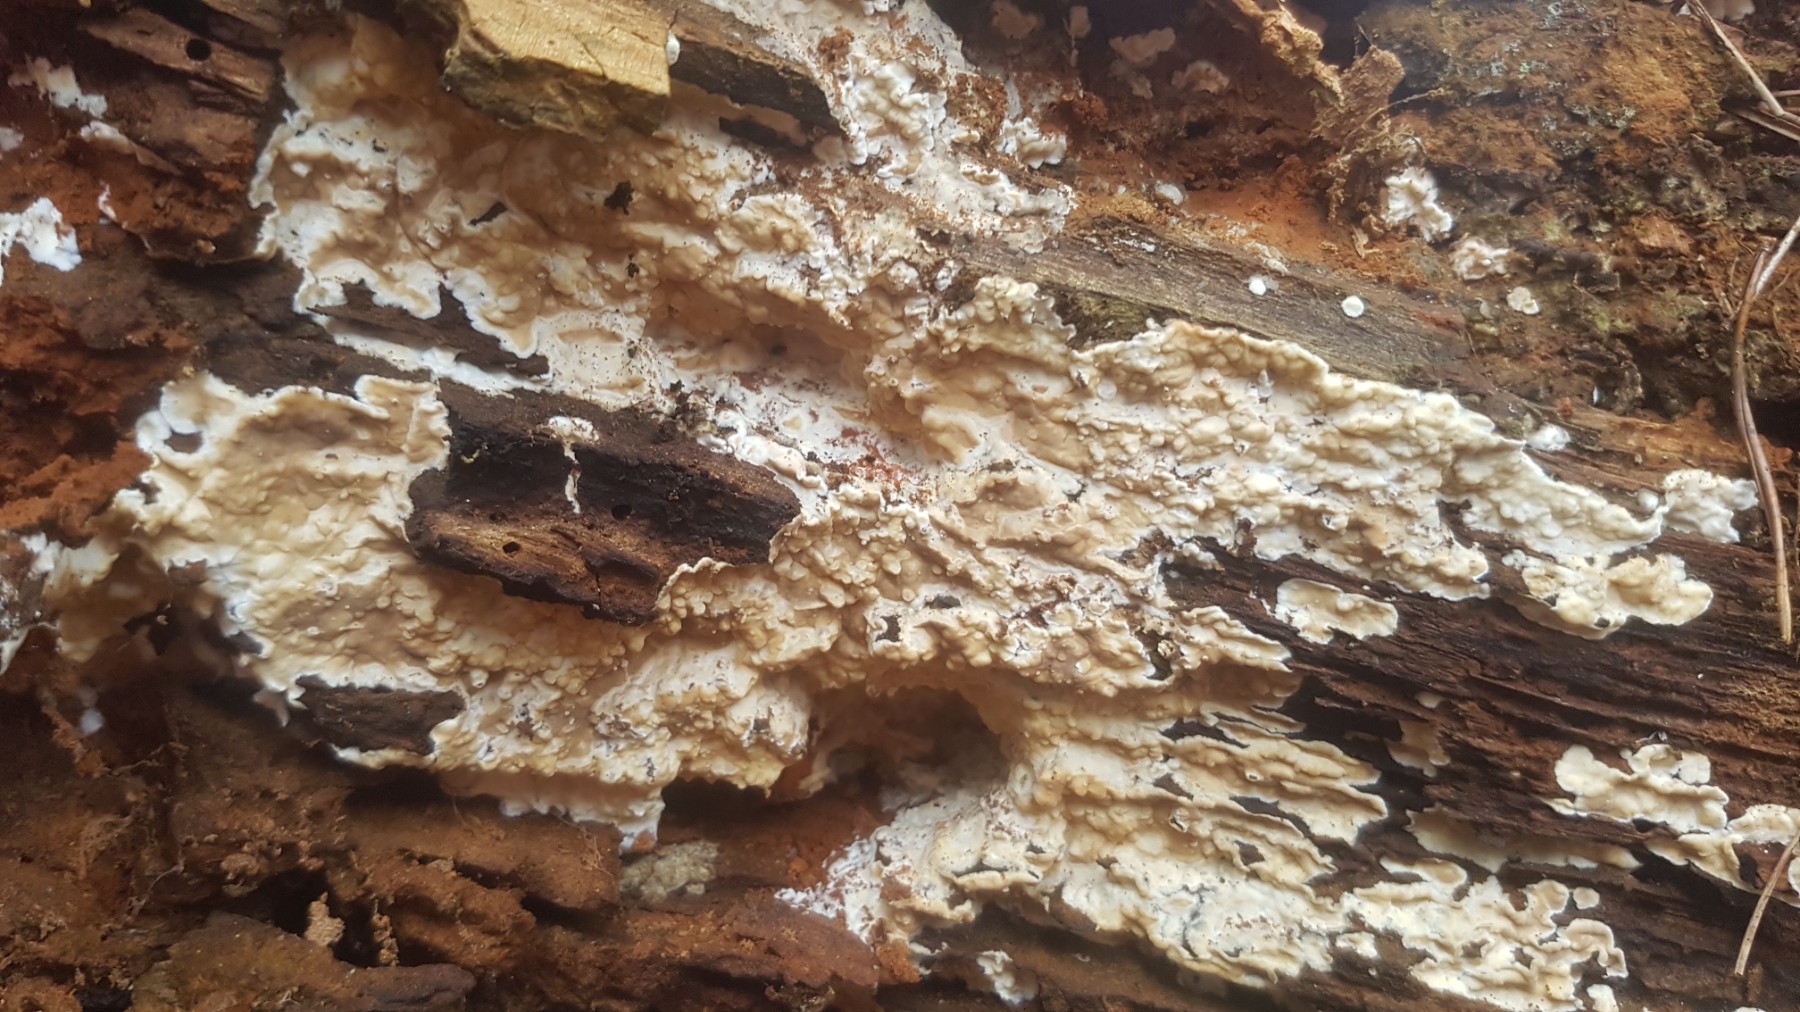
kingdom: Fungi
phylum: Basidiomycota
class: Agaricomycetes
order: Polyporales
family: Dacryobolaceae
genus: Dacryobolus
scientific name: Dacryobolus karstenii
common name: glat vulkanskorpe
